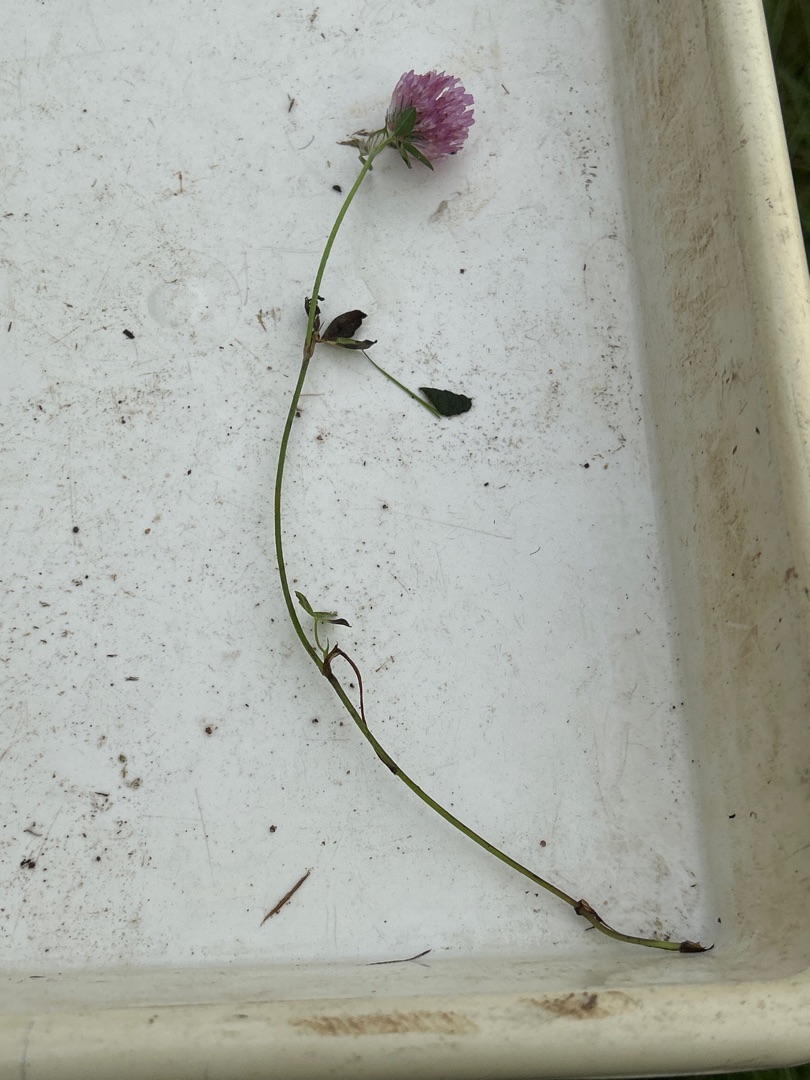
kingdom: Plantae
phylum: Tracheophyta
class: Magnoliopsida
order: Fabales
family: Fabaceae
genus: Trifolium
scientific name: Trifolium pratense
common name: Rød-kløver
